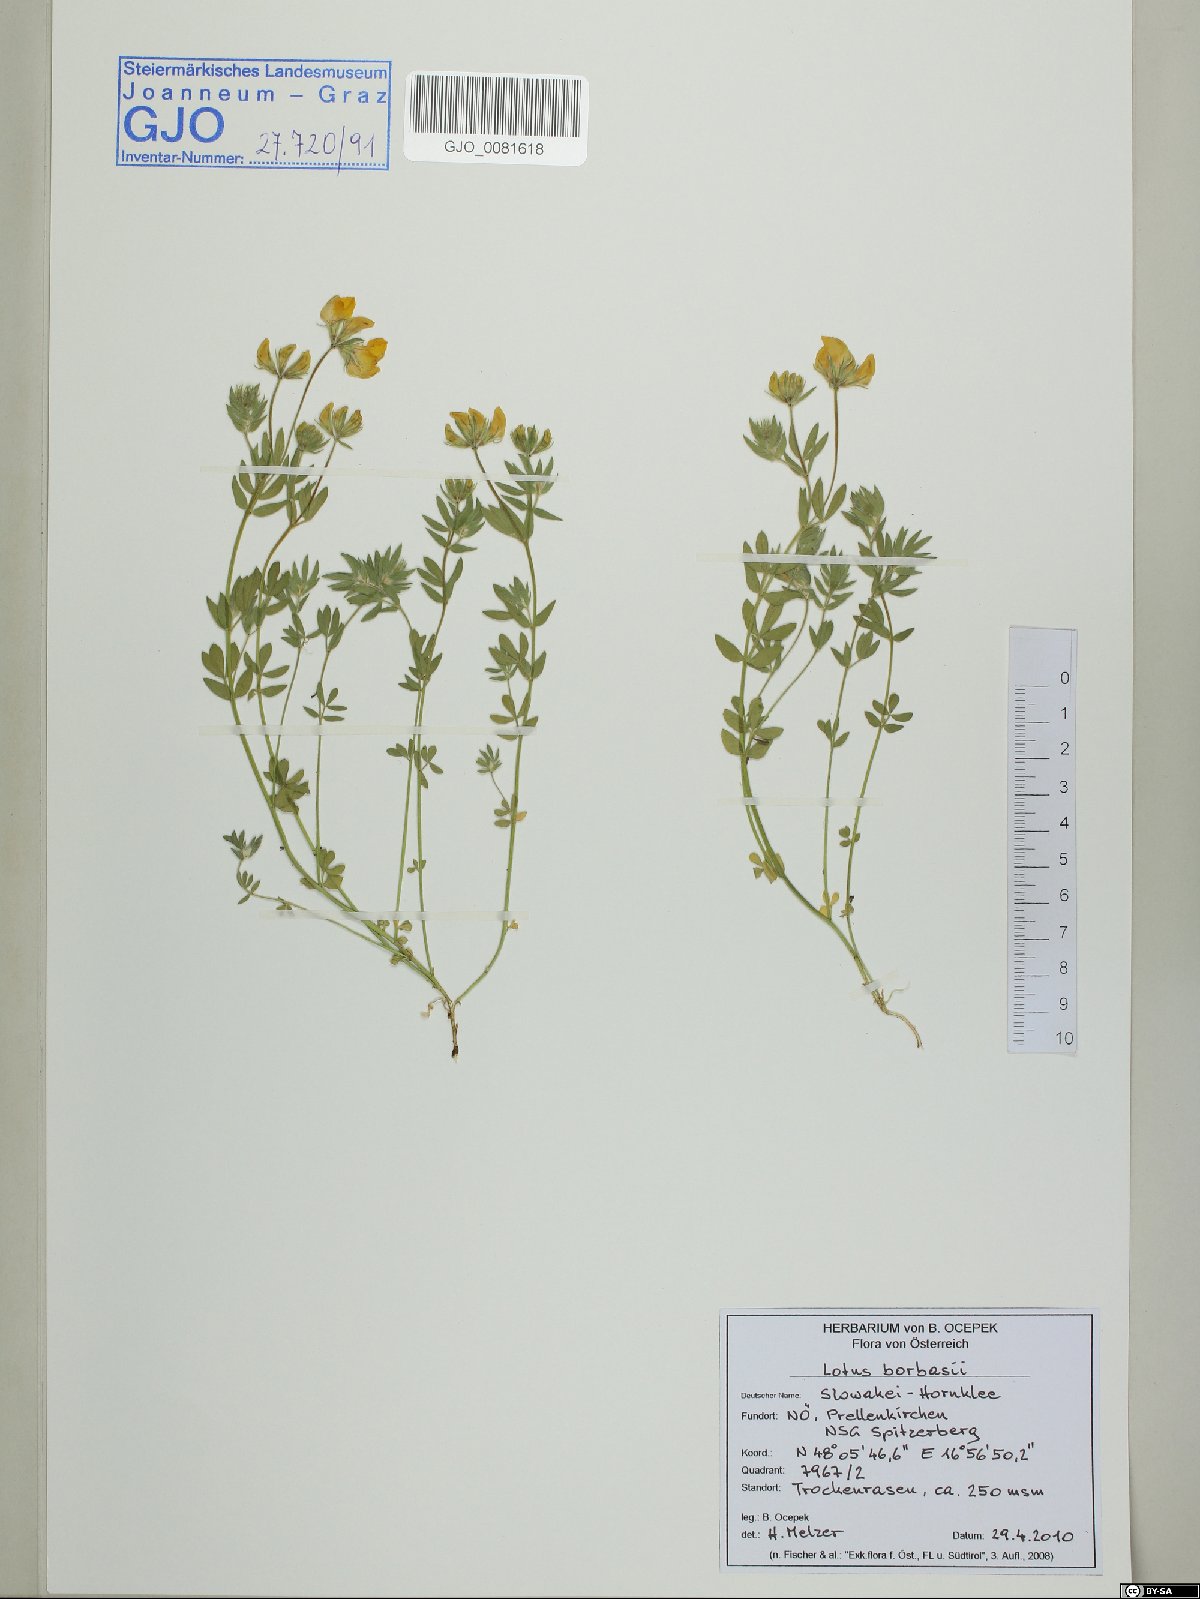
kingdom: Plantae
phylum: Tracheophyta
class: Magnoliopsida
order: Fabales
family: Fabaceae
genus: Lotus
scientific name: Lotus borbasii
